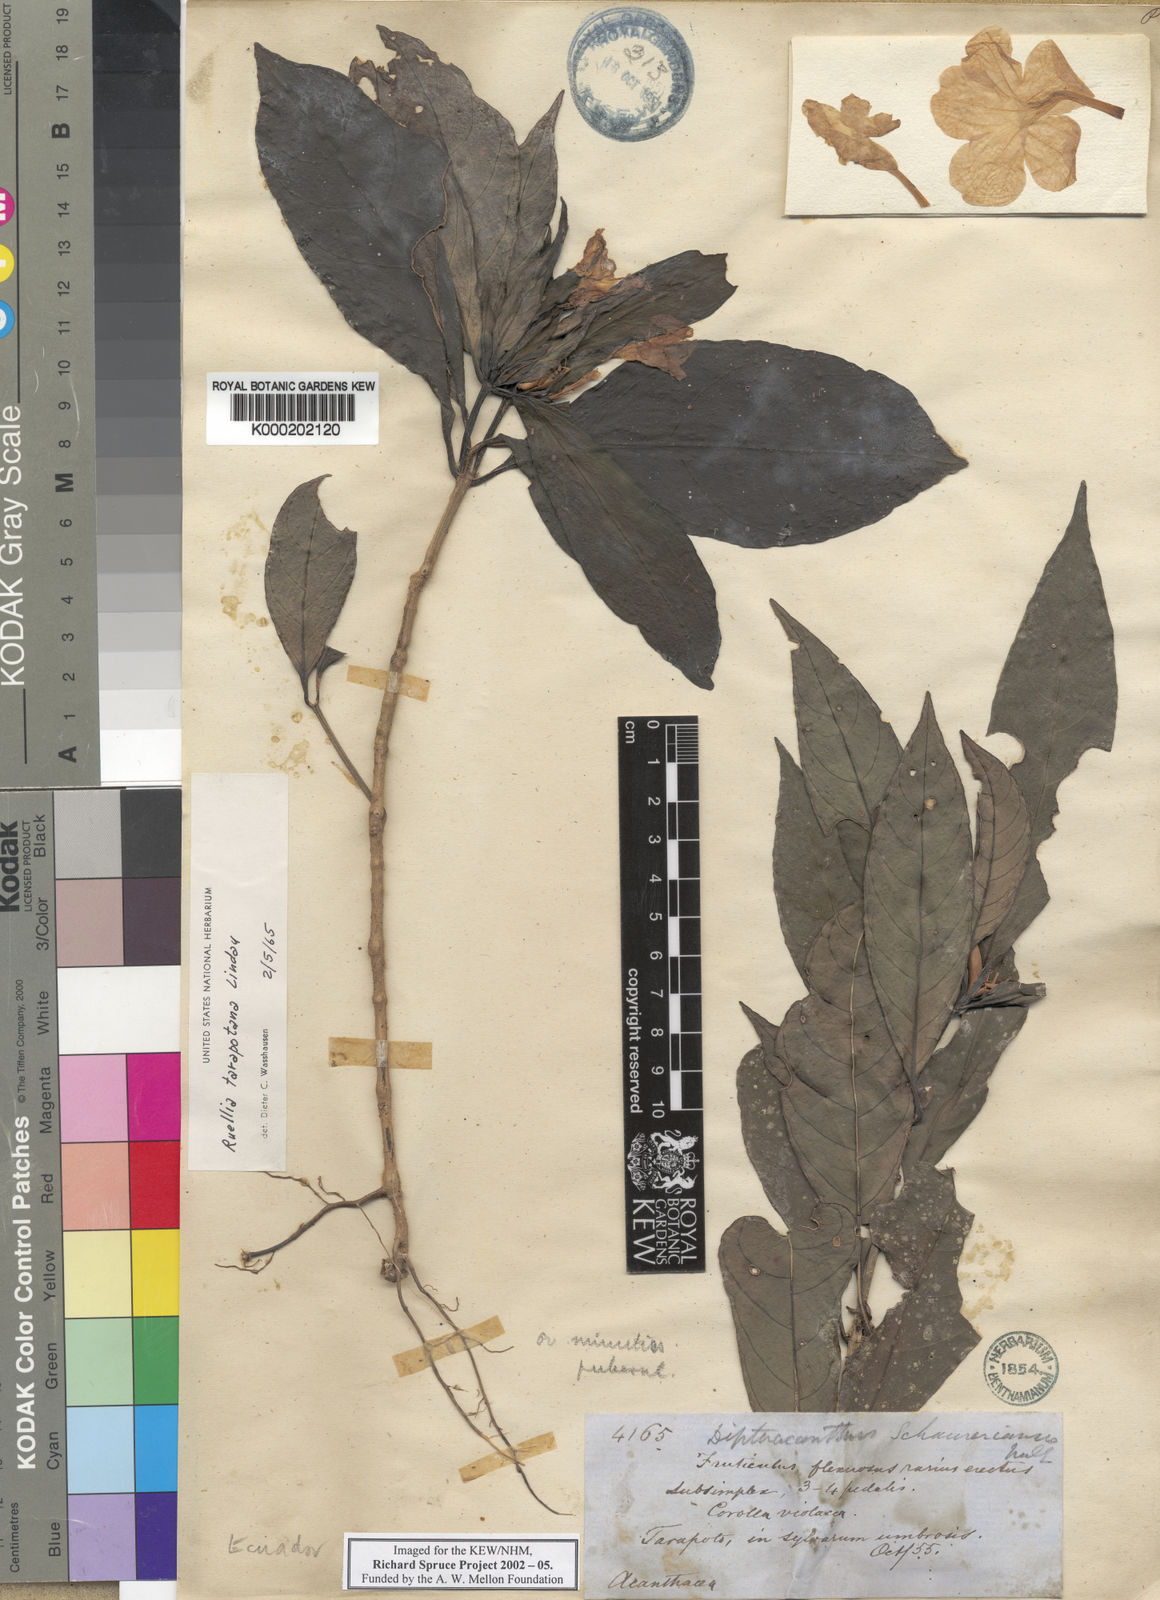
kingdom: Plantae
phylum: Tracheophyta
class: Magnoliopsida
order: Lamiales
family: Acanthaceae
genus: Ruellia
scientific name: Ruellia tarapotana
